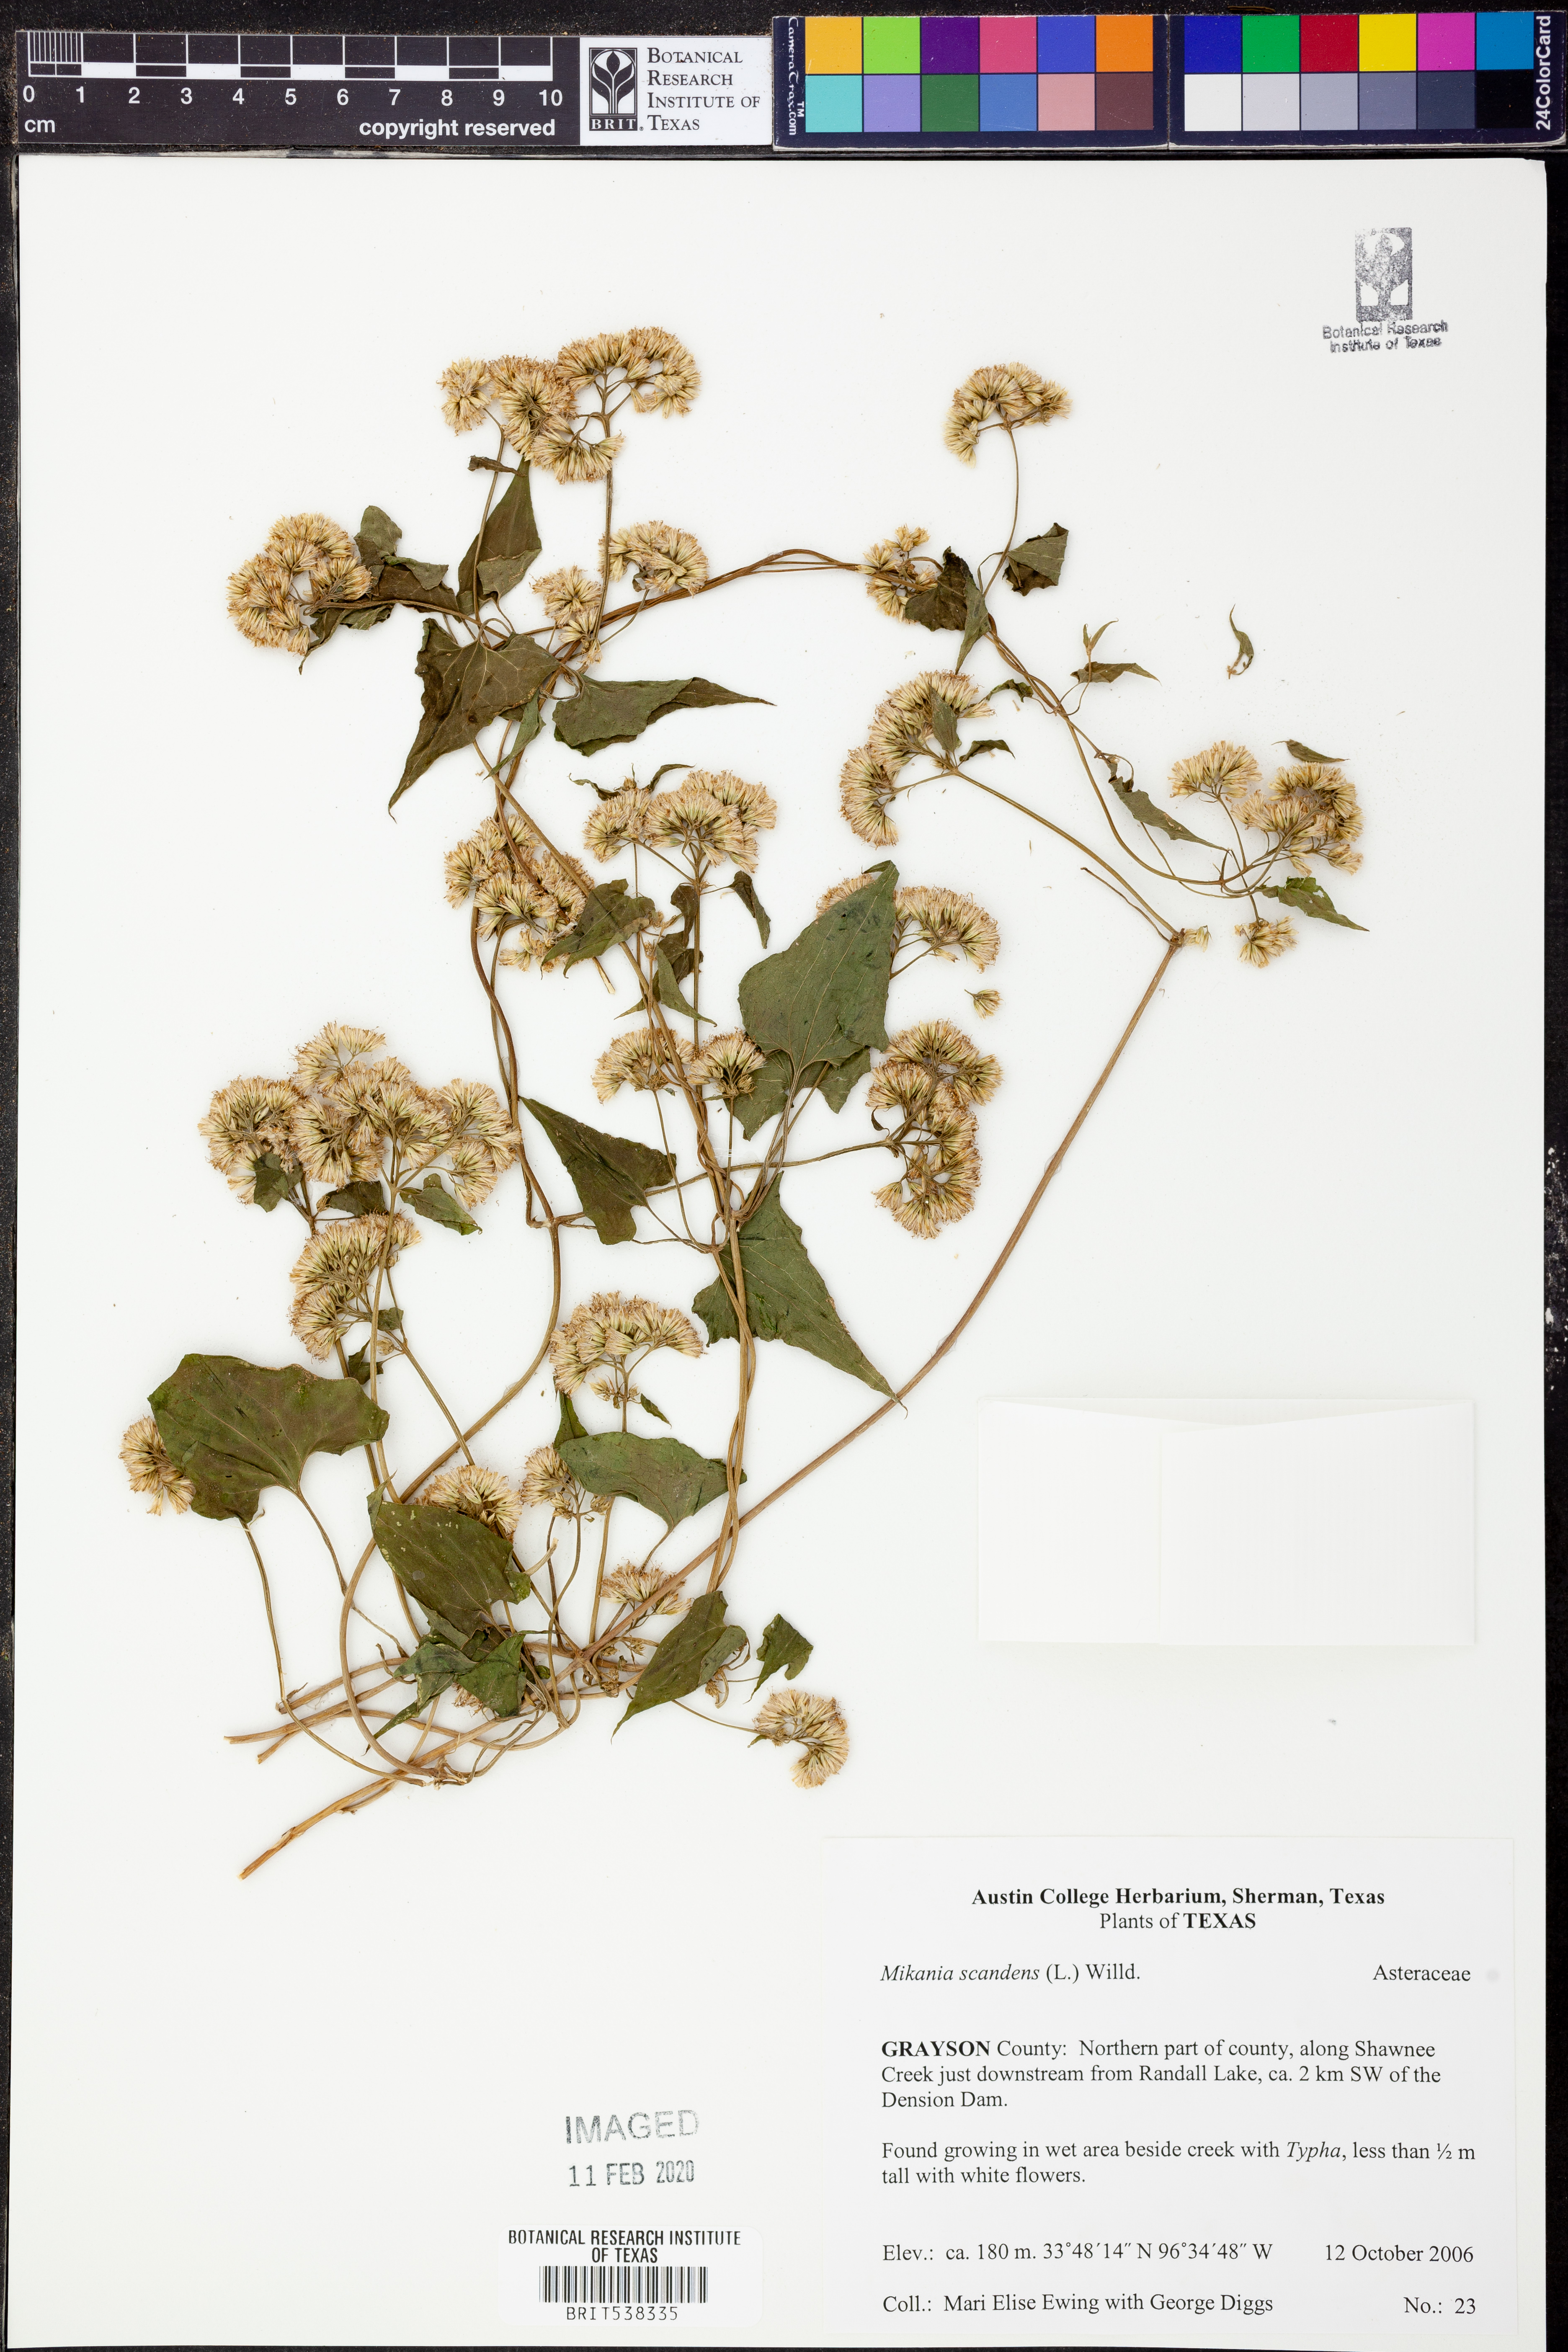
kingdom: Plantae
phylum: Tracheophyta
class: Magnoliopsida
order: Asterales
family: Asteraceae
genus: Mikania
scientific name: Mikania scandens
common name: Climbing hempvine
